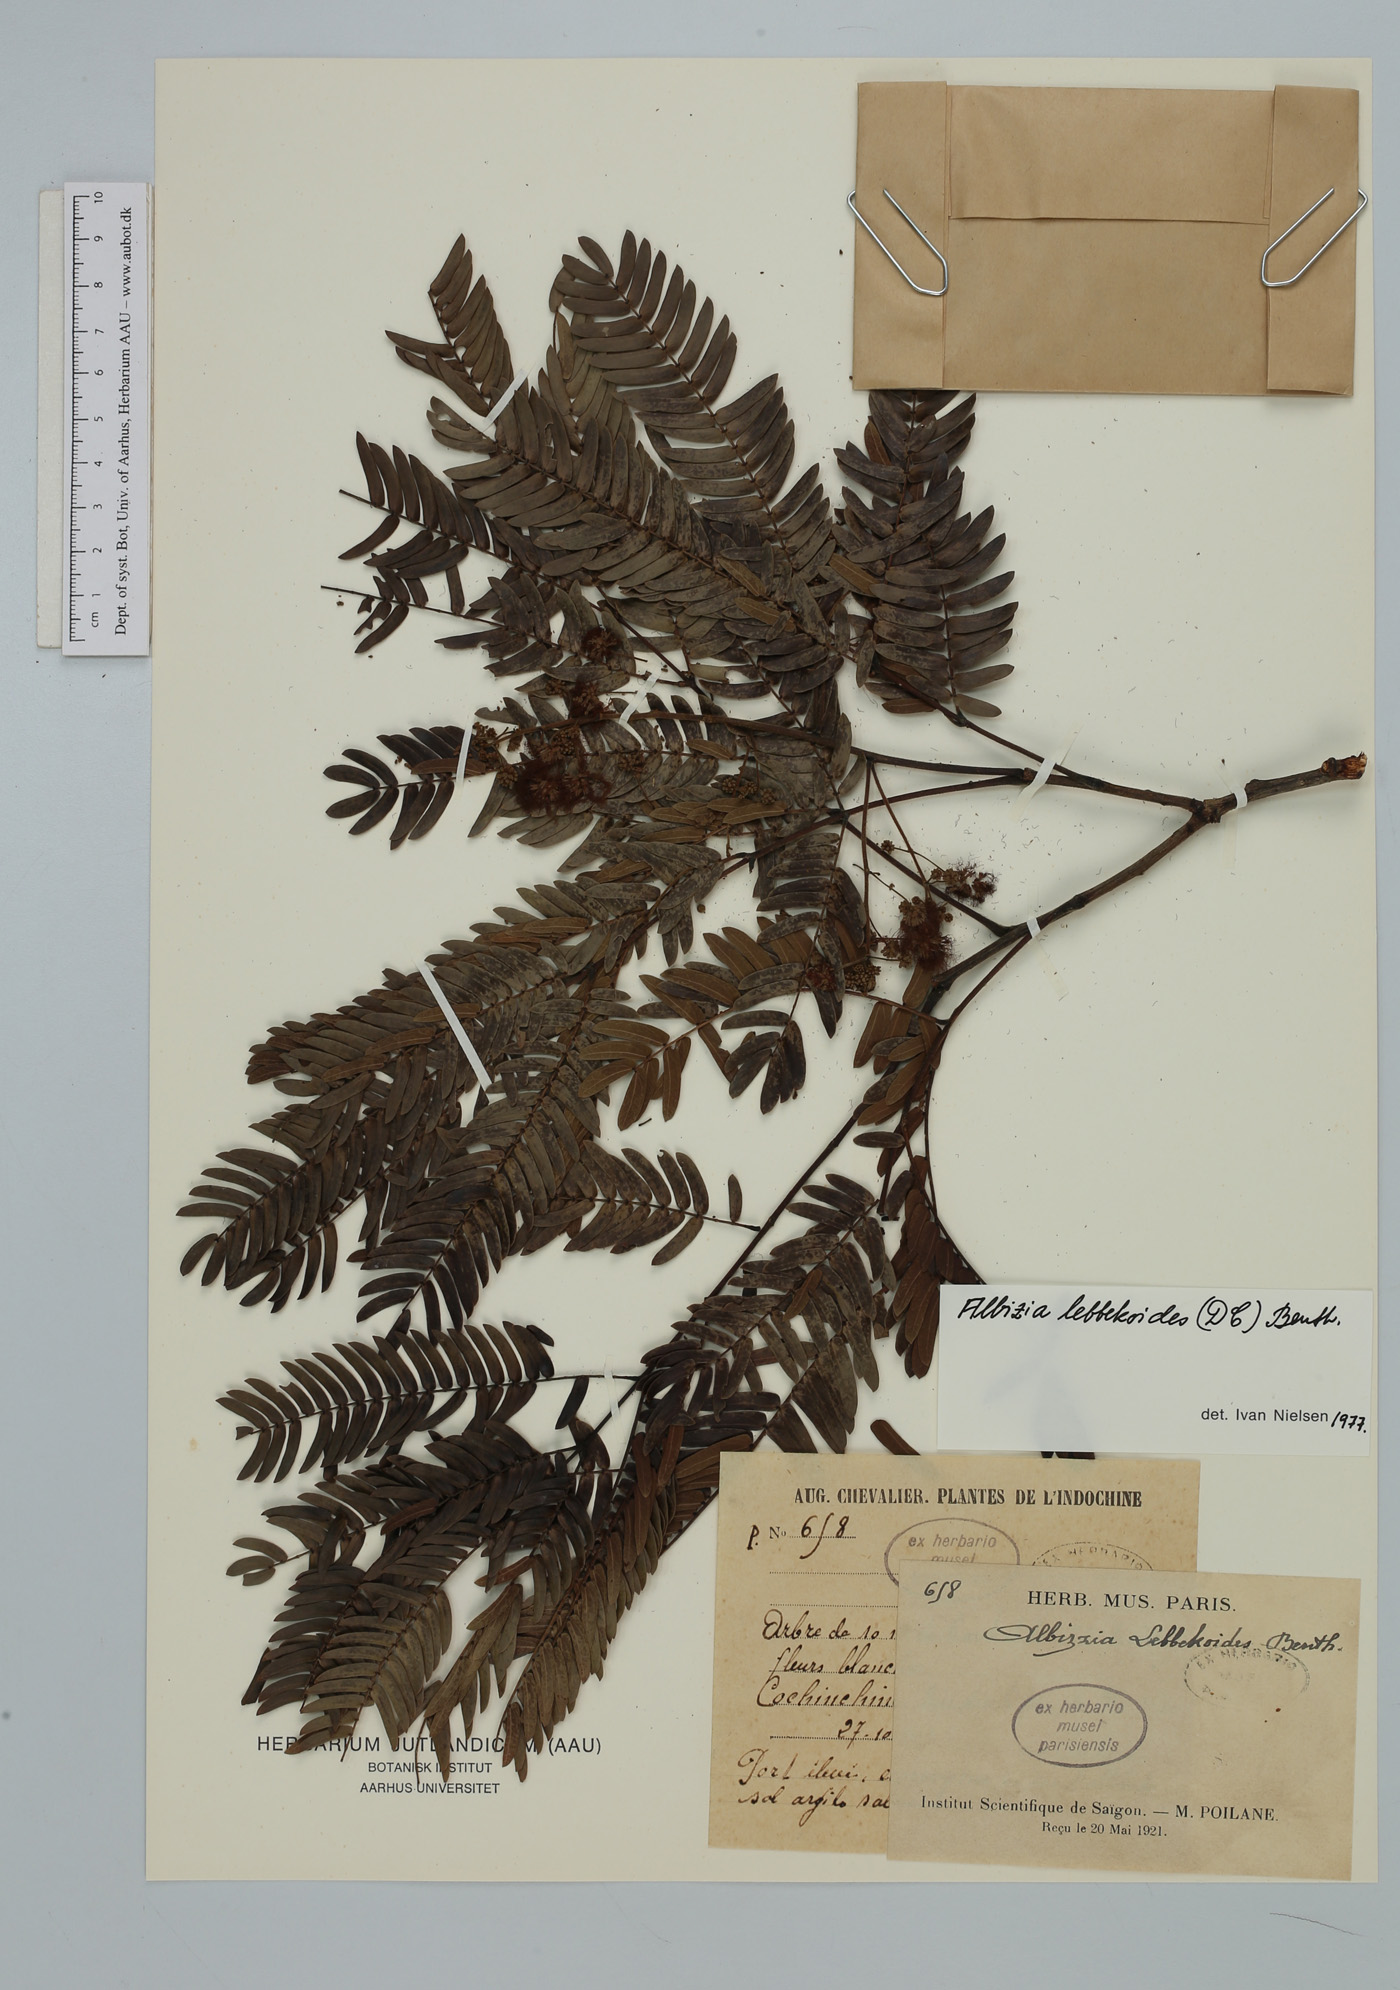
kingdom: Plantae
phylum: Tracheophyta
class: Magnoliopsida
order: Fabales
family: Fabaceae
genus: Albizia
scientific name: Albizia lebbekoides
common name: Indian albizia
